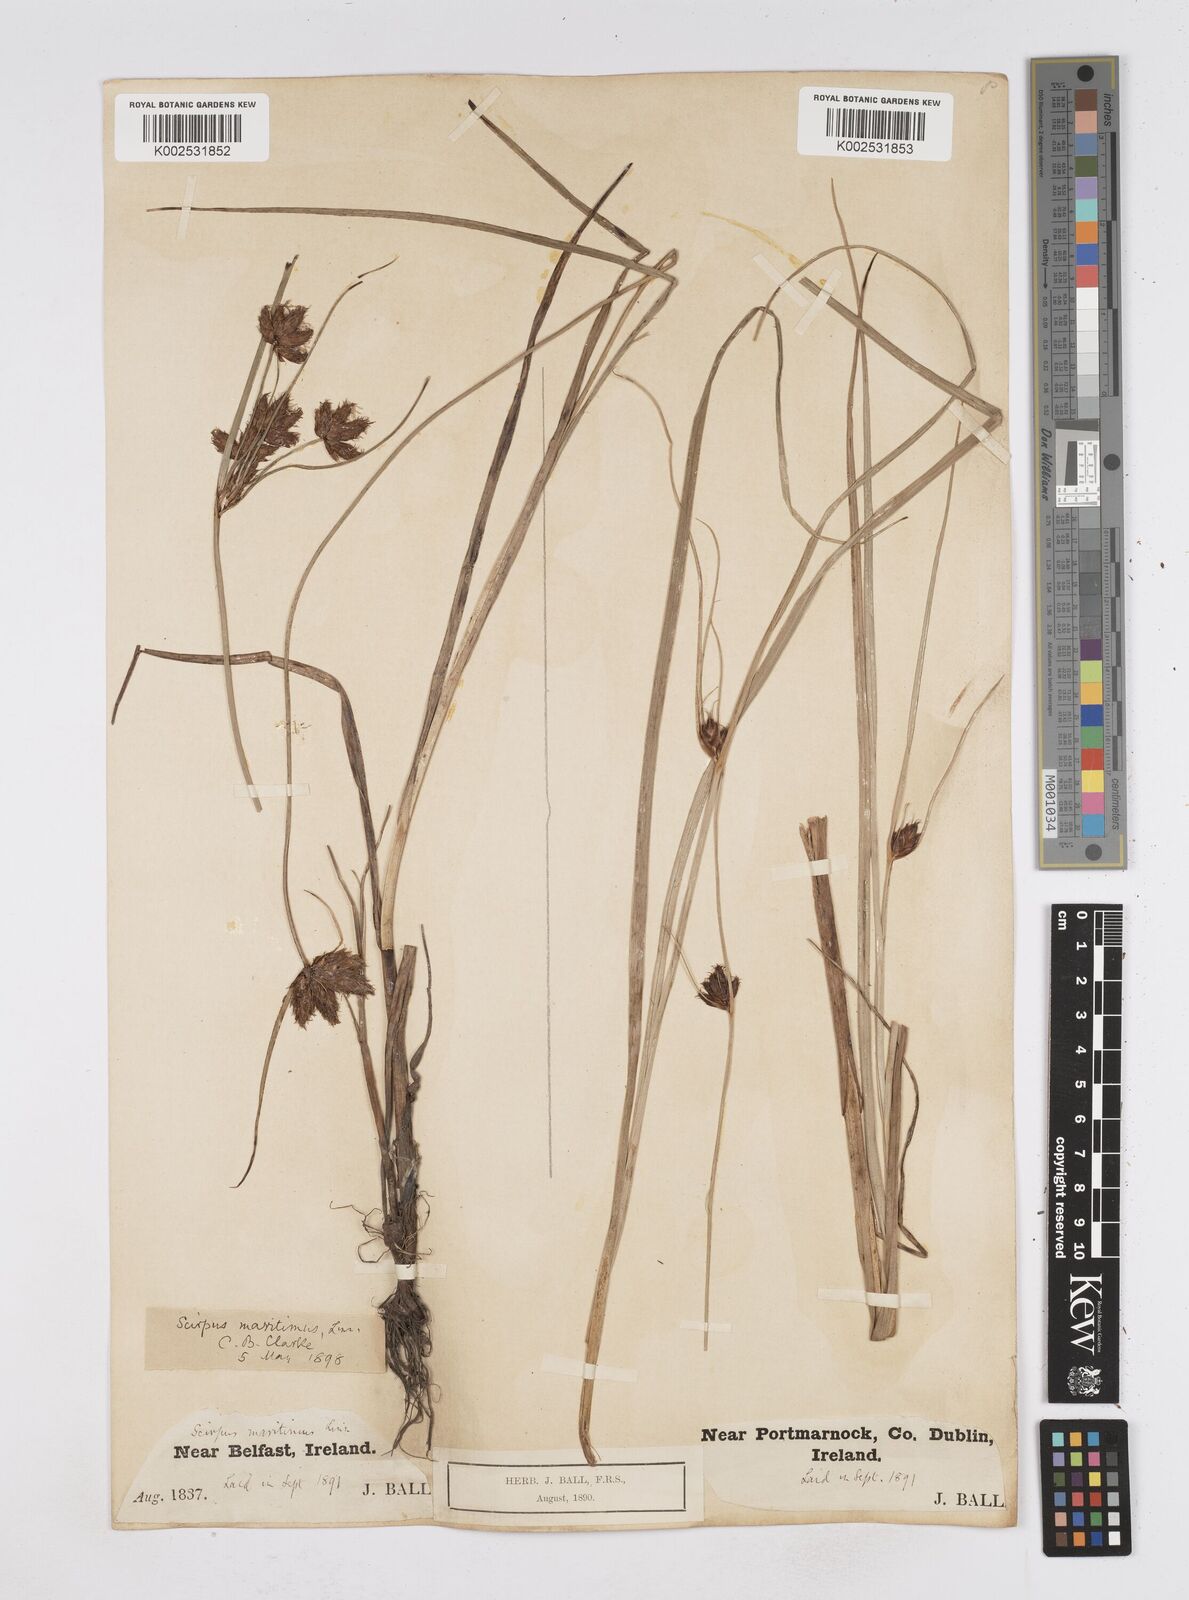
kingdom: Plantae
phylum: Tracheophyta
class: Liliopsida
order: Poales
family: Cyperaceae
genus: Bolboschoenus
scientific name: Bolboschoenus maritimus
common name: Sea club-rush
